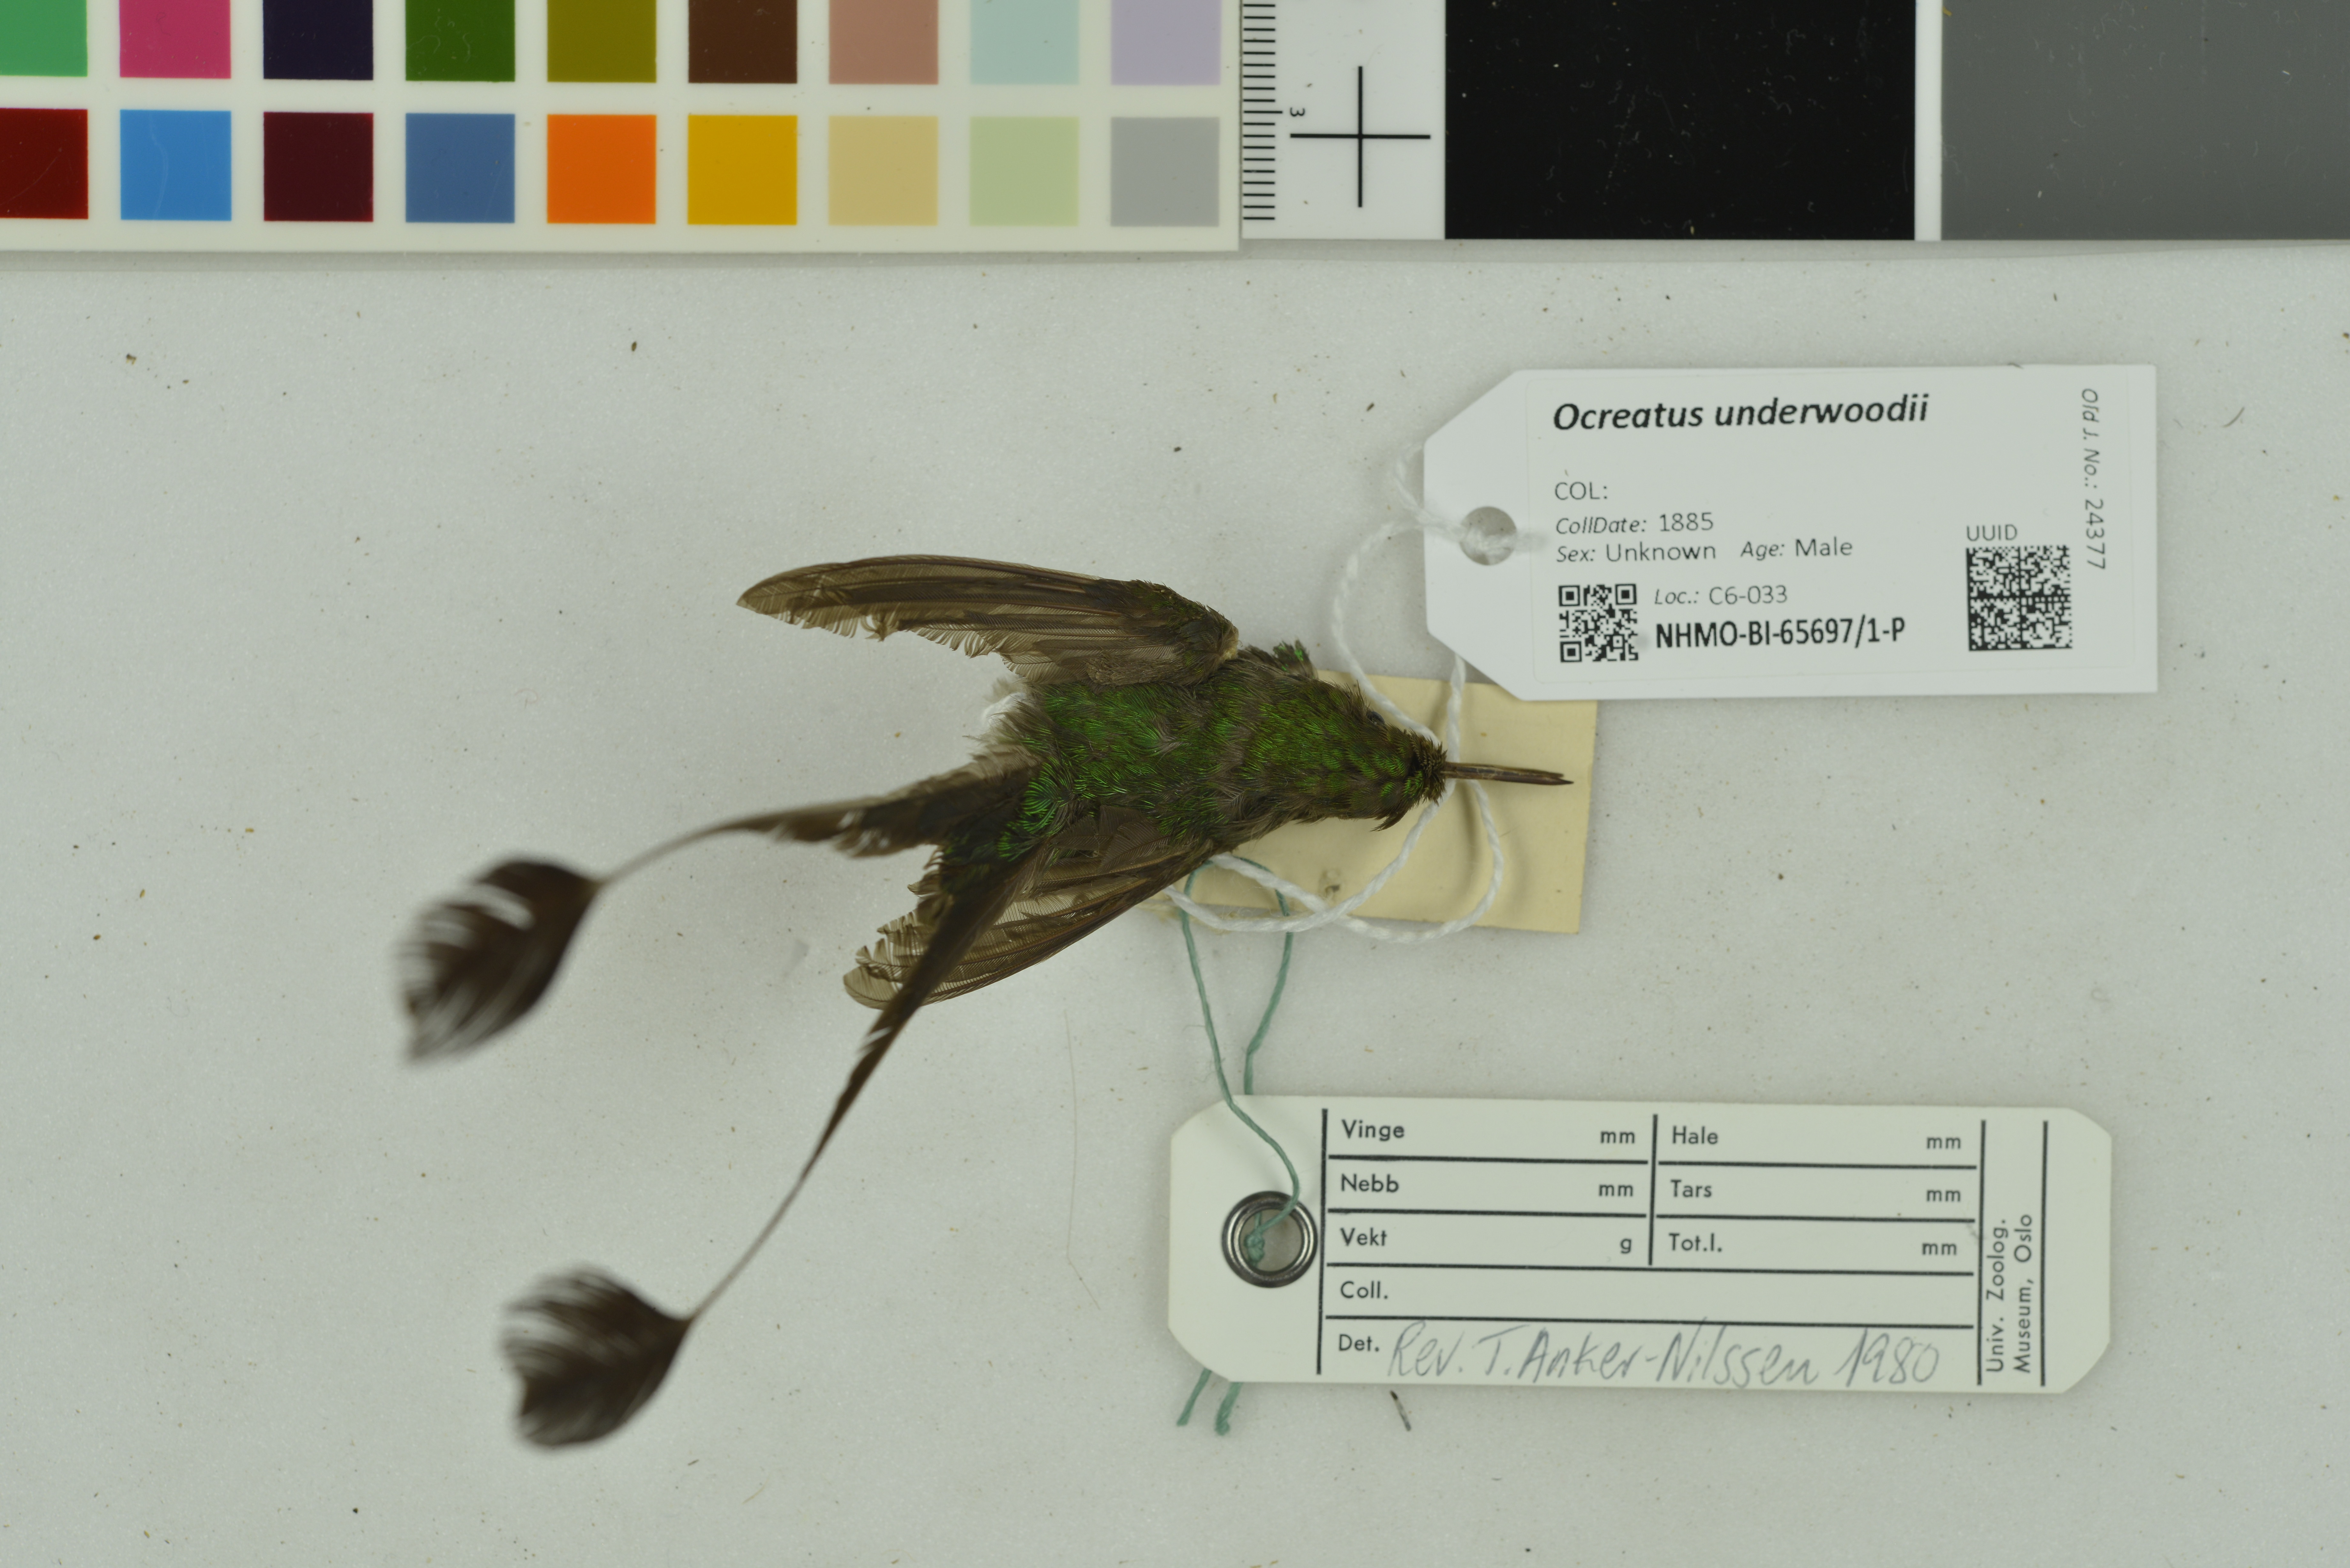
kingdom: Animalia
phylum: Chordata
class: Aves
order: Apodiformes
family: Trochilidae
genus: Ocreatus
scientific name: Ocreatus underwoodii
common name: Booted racket-tail
